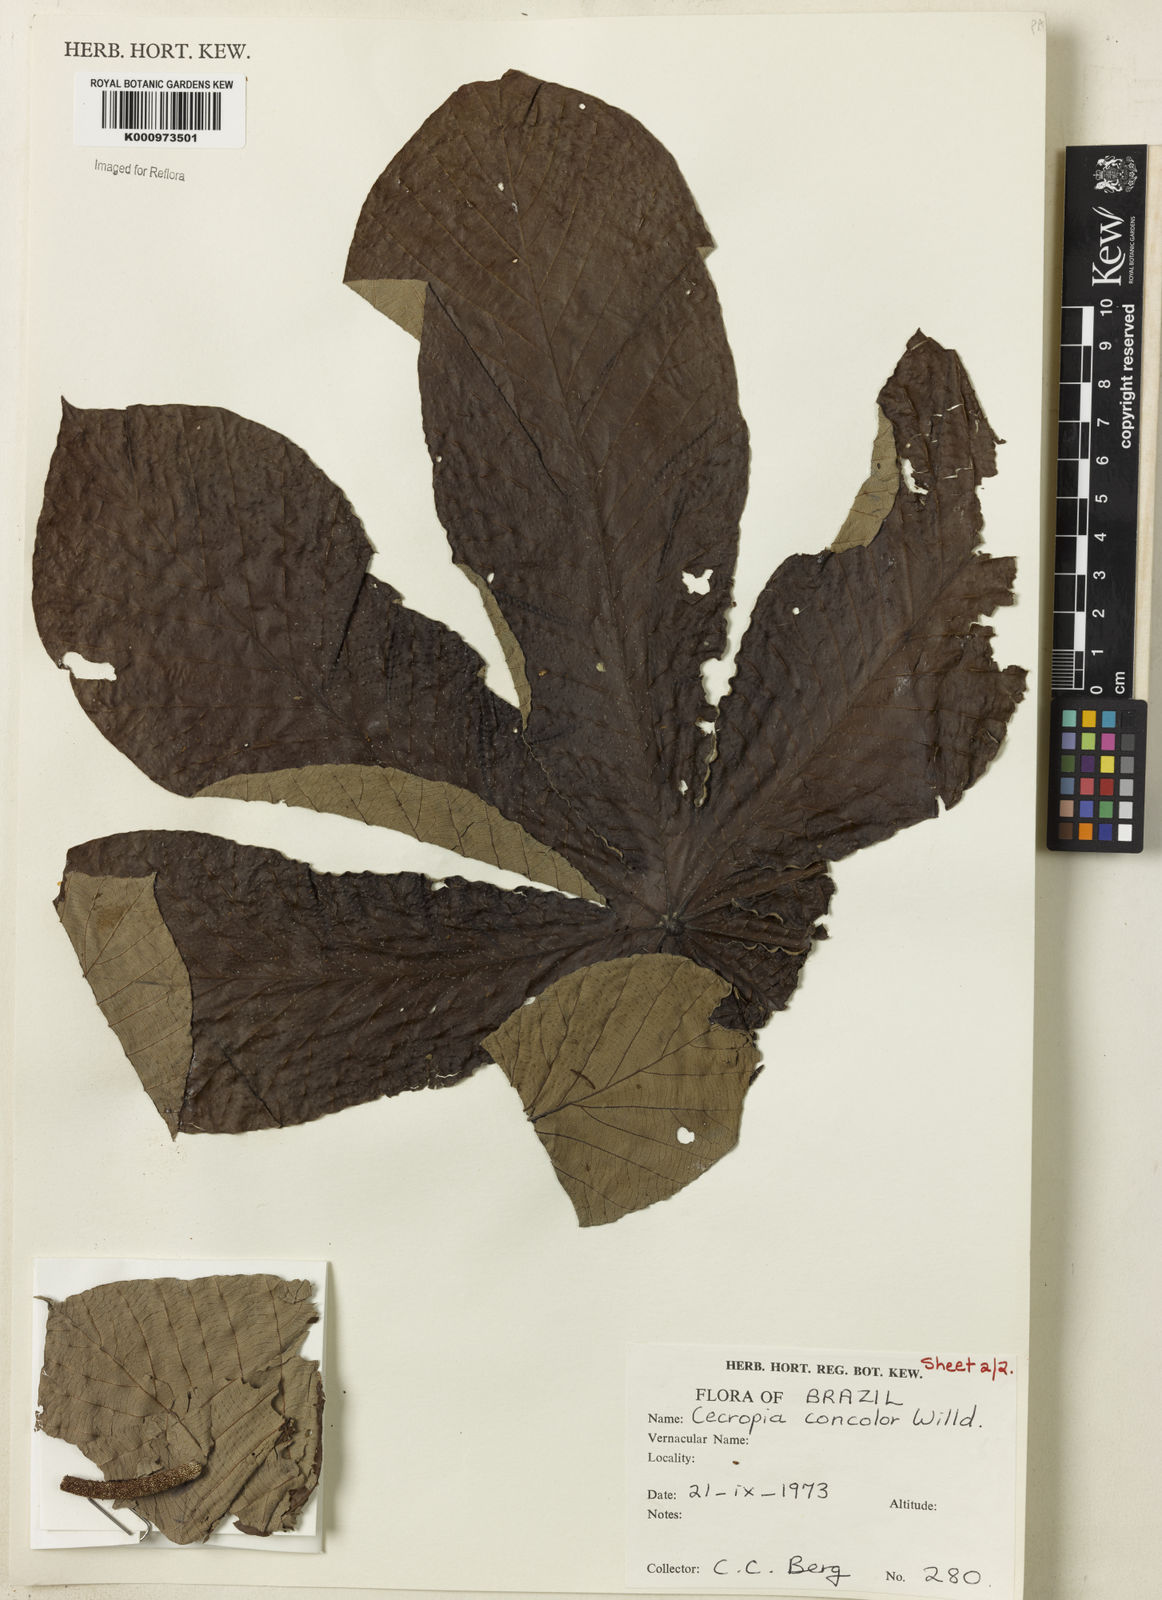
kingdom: Plantae
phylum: Tracheophyta
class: Magnoliopsida
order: Rosales
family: Urticaceae
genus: Cecropia
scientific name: Cecropia concolor
